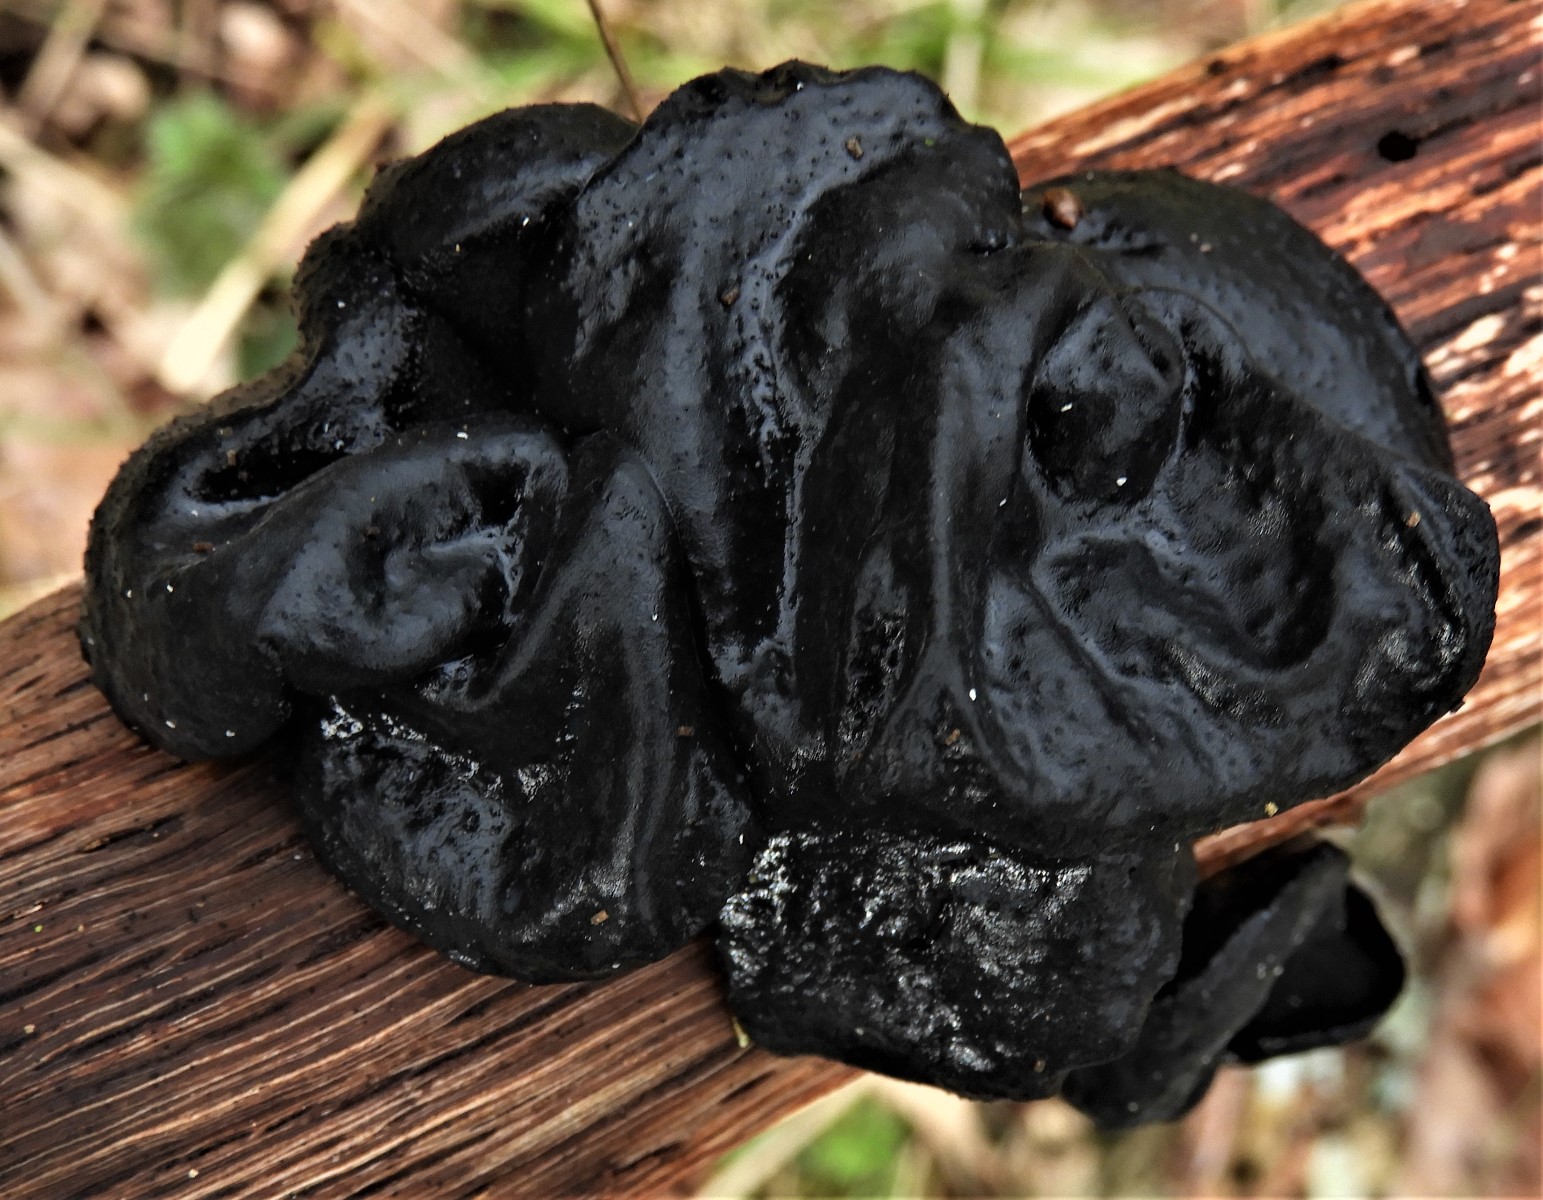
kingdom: Fungi
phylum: Basidiomycota
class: Agaricomycetes
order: Auriculariales
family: Auriculariaceae
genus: Exidia
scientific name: Exidia glandulosa
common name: ege-bævretop
